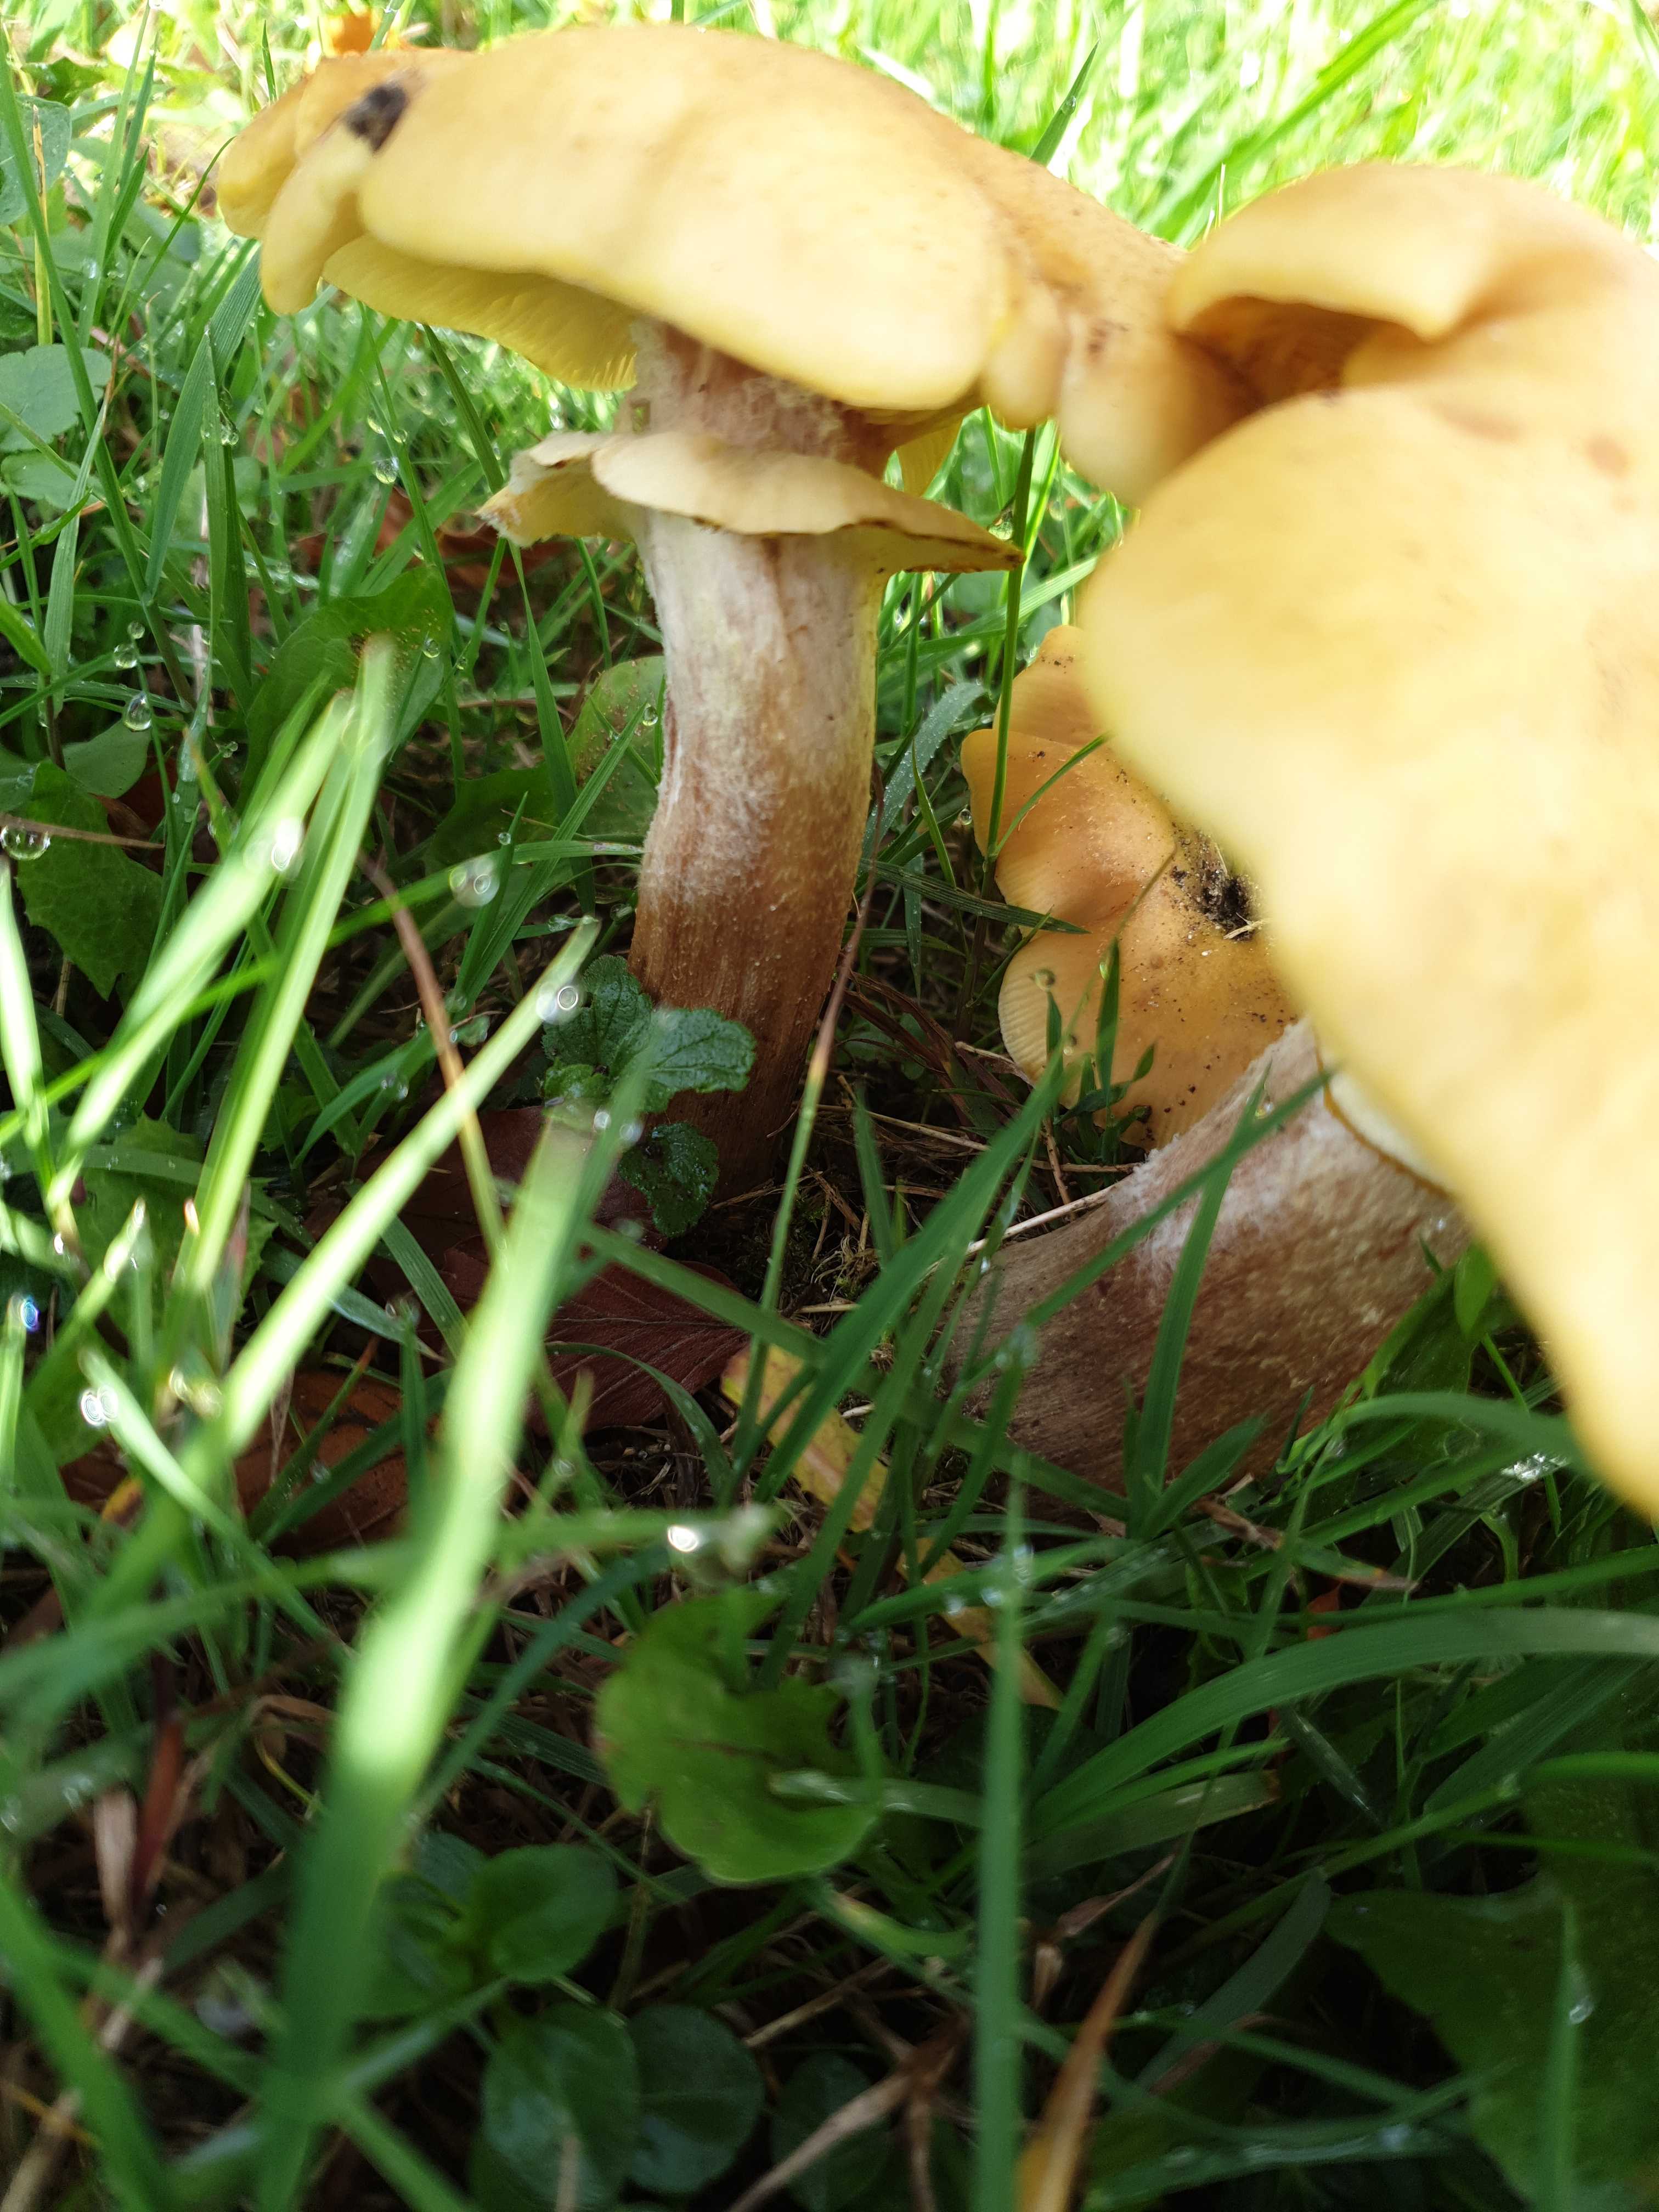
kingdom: Fungi
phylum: Basidiomycota
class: Agaricomycetes
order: Agaricales
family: Physalacriaceae
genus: Armillaria
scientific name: Armillaria lutea
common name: køllestokket honningsvamp
